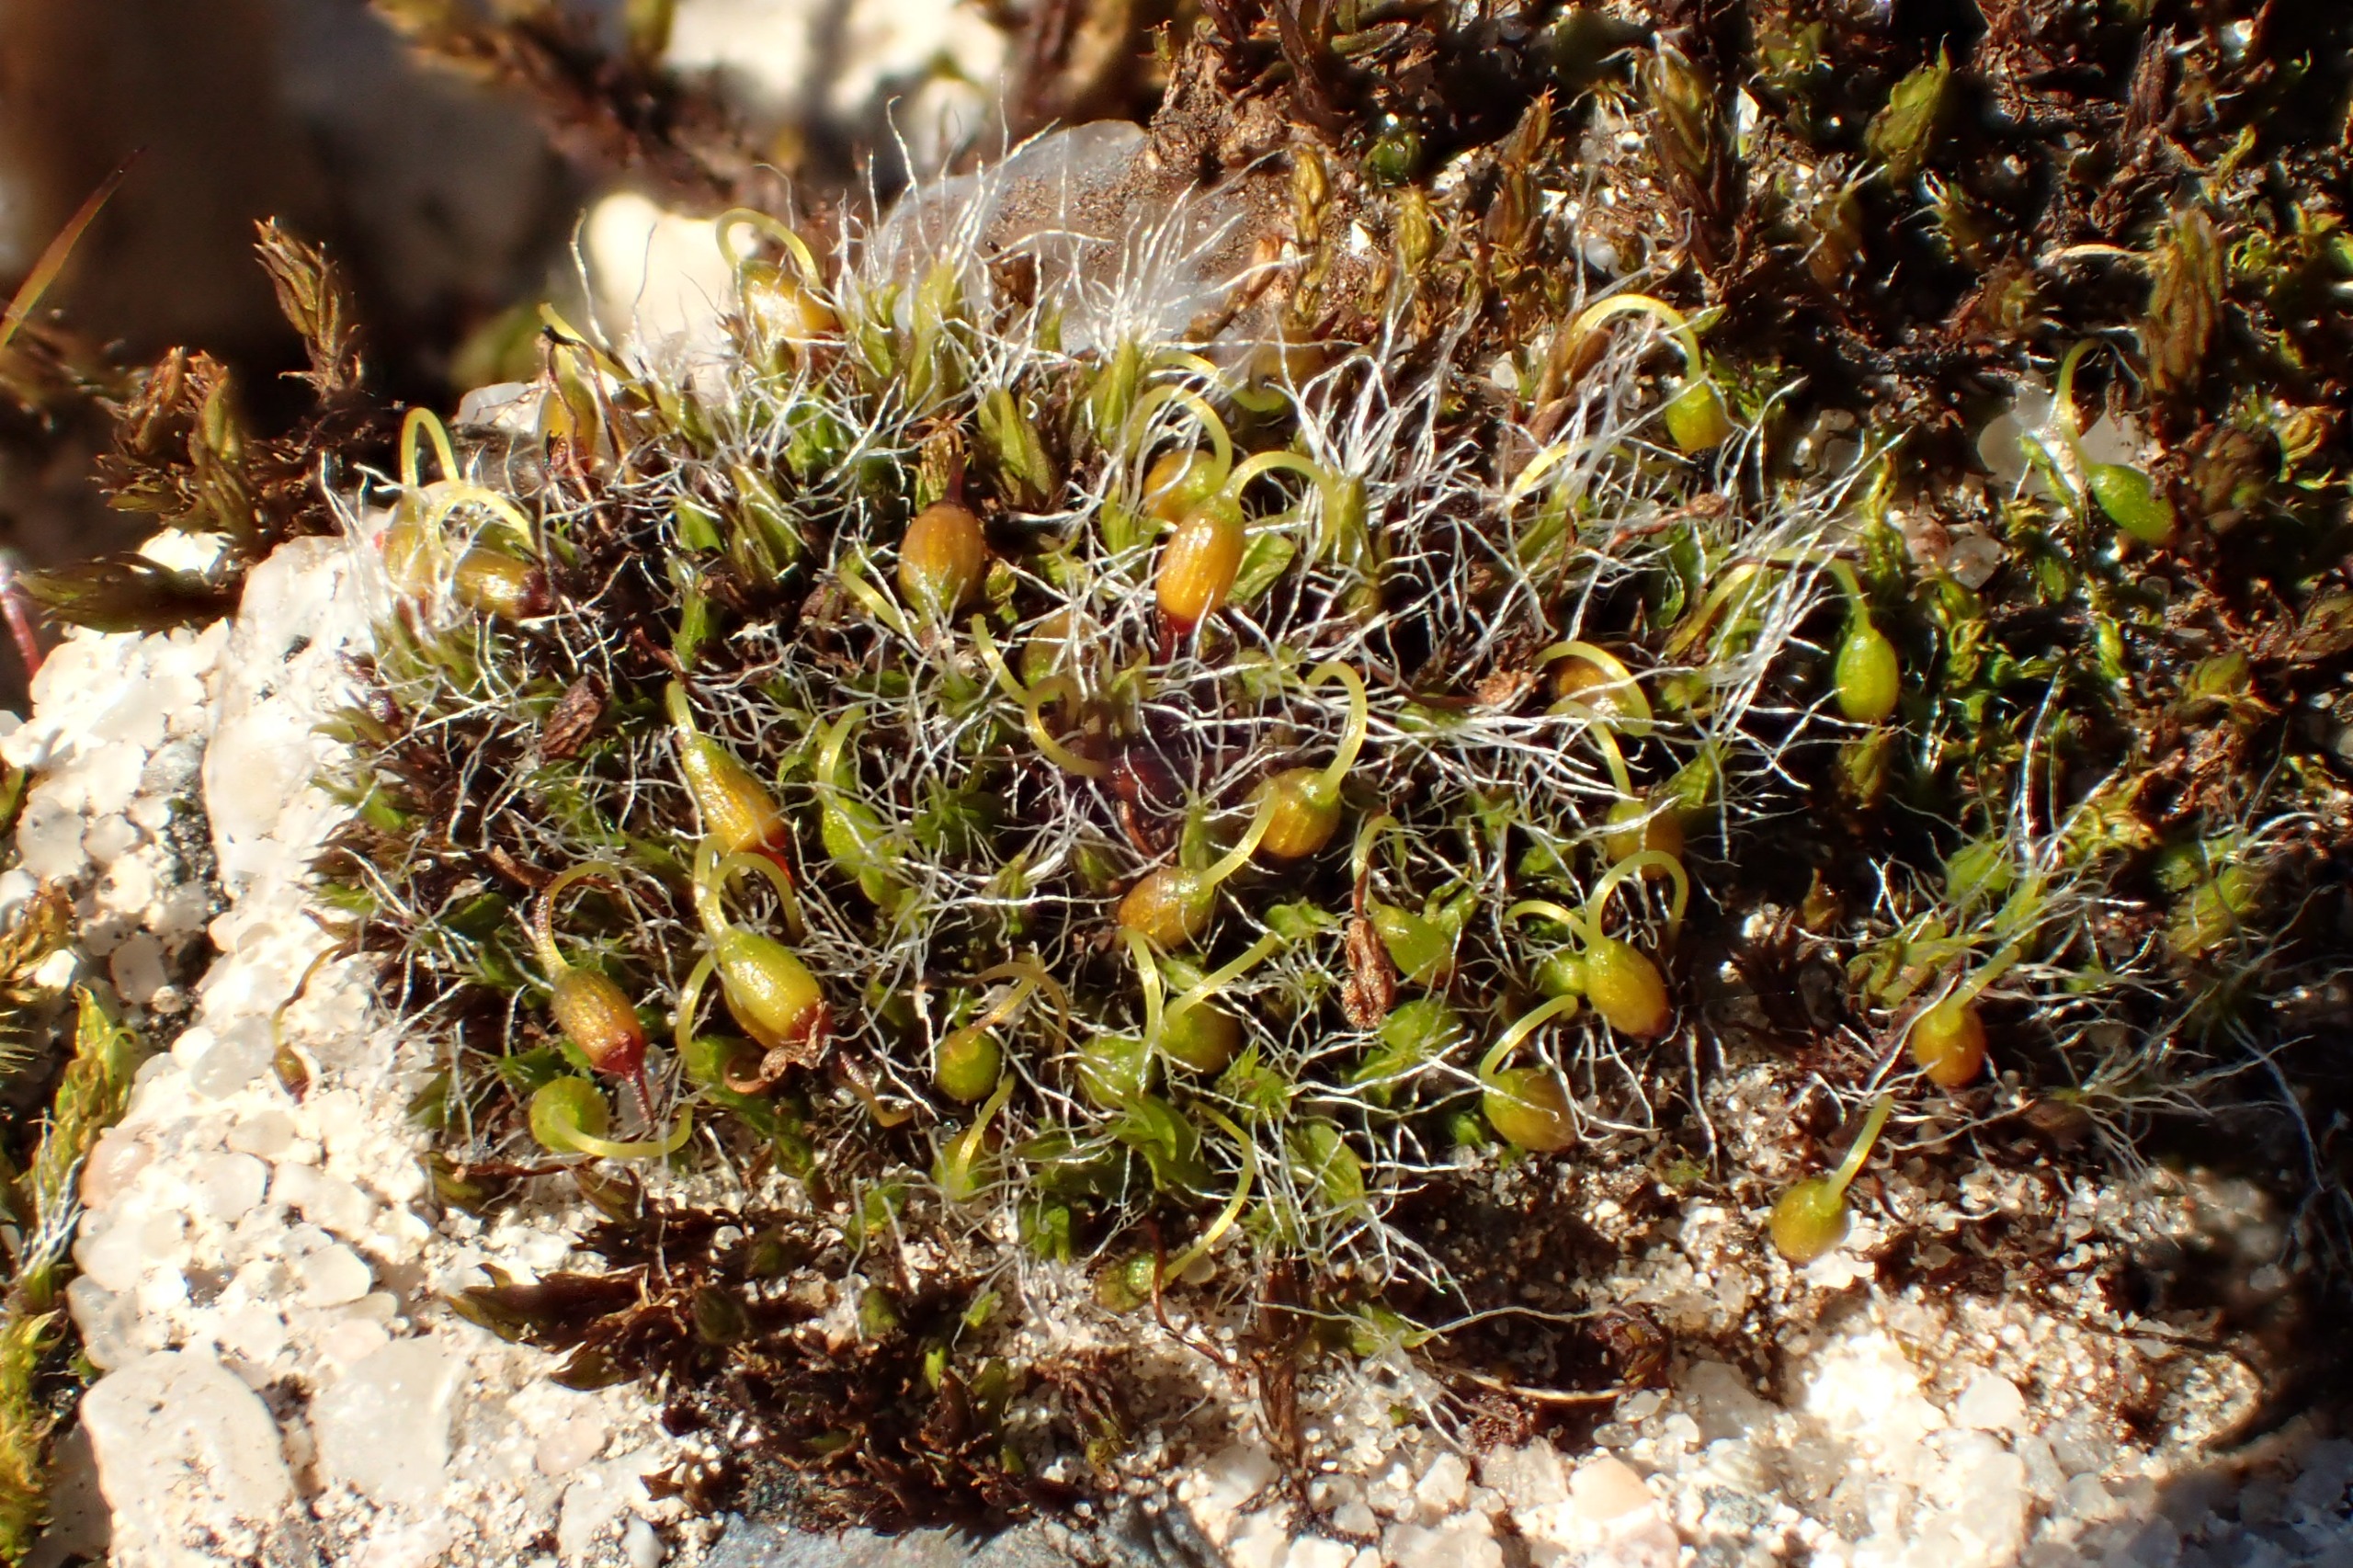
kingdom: Plantae
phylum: Bryophyta
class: Bryopsida
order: Grimmiales
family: Grimmiaceae
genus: Grimmia
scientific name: Grimmia pulvinata
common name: Pude-gråmos
